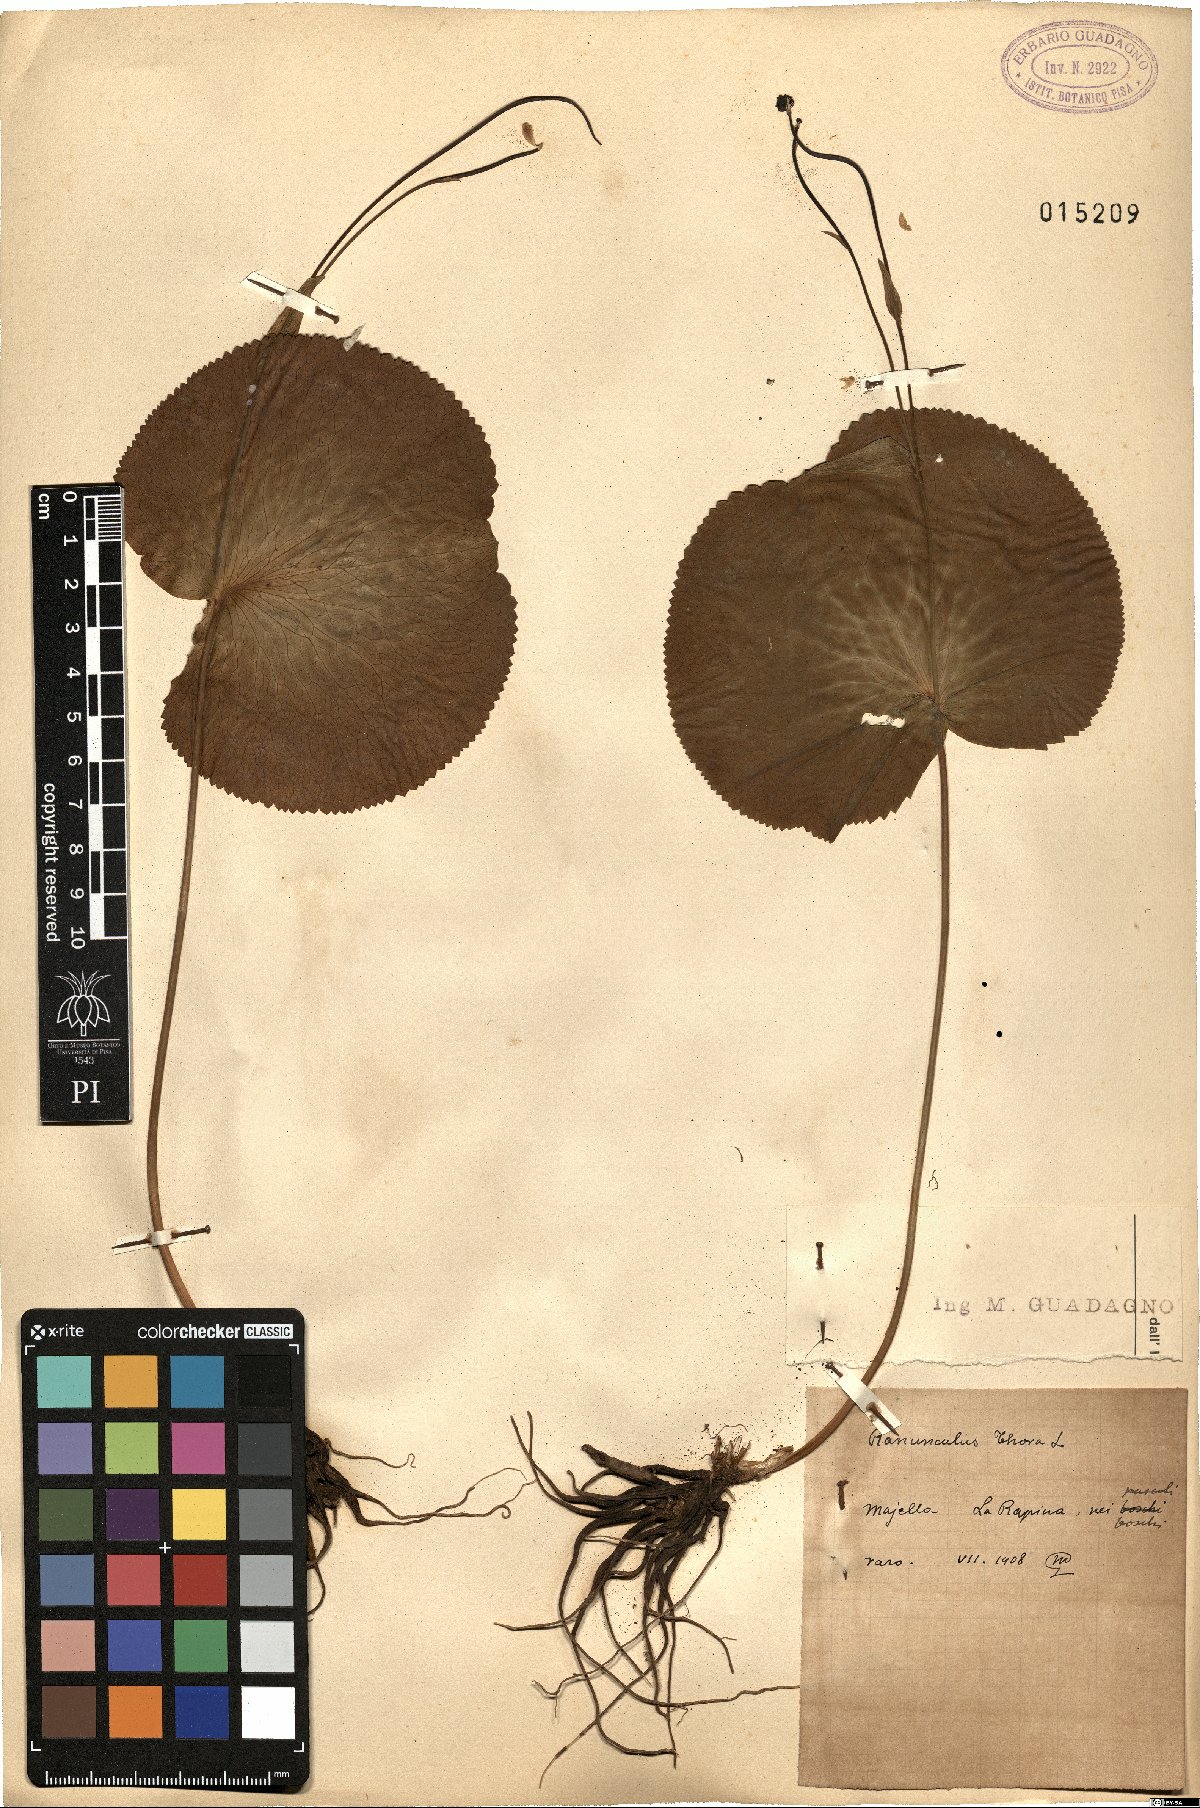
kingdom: Plantae
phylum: Tracheophyta
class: Magnoliopsida
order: Ranunculales
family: Ranunculaceae
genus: Ranunculus
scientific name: Ranunculus thora
